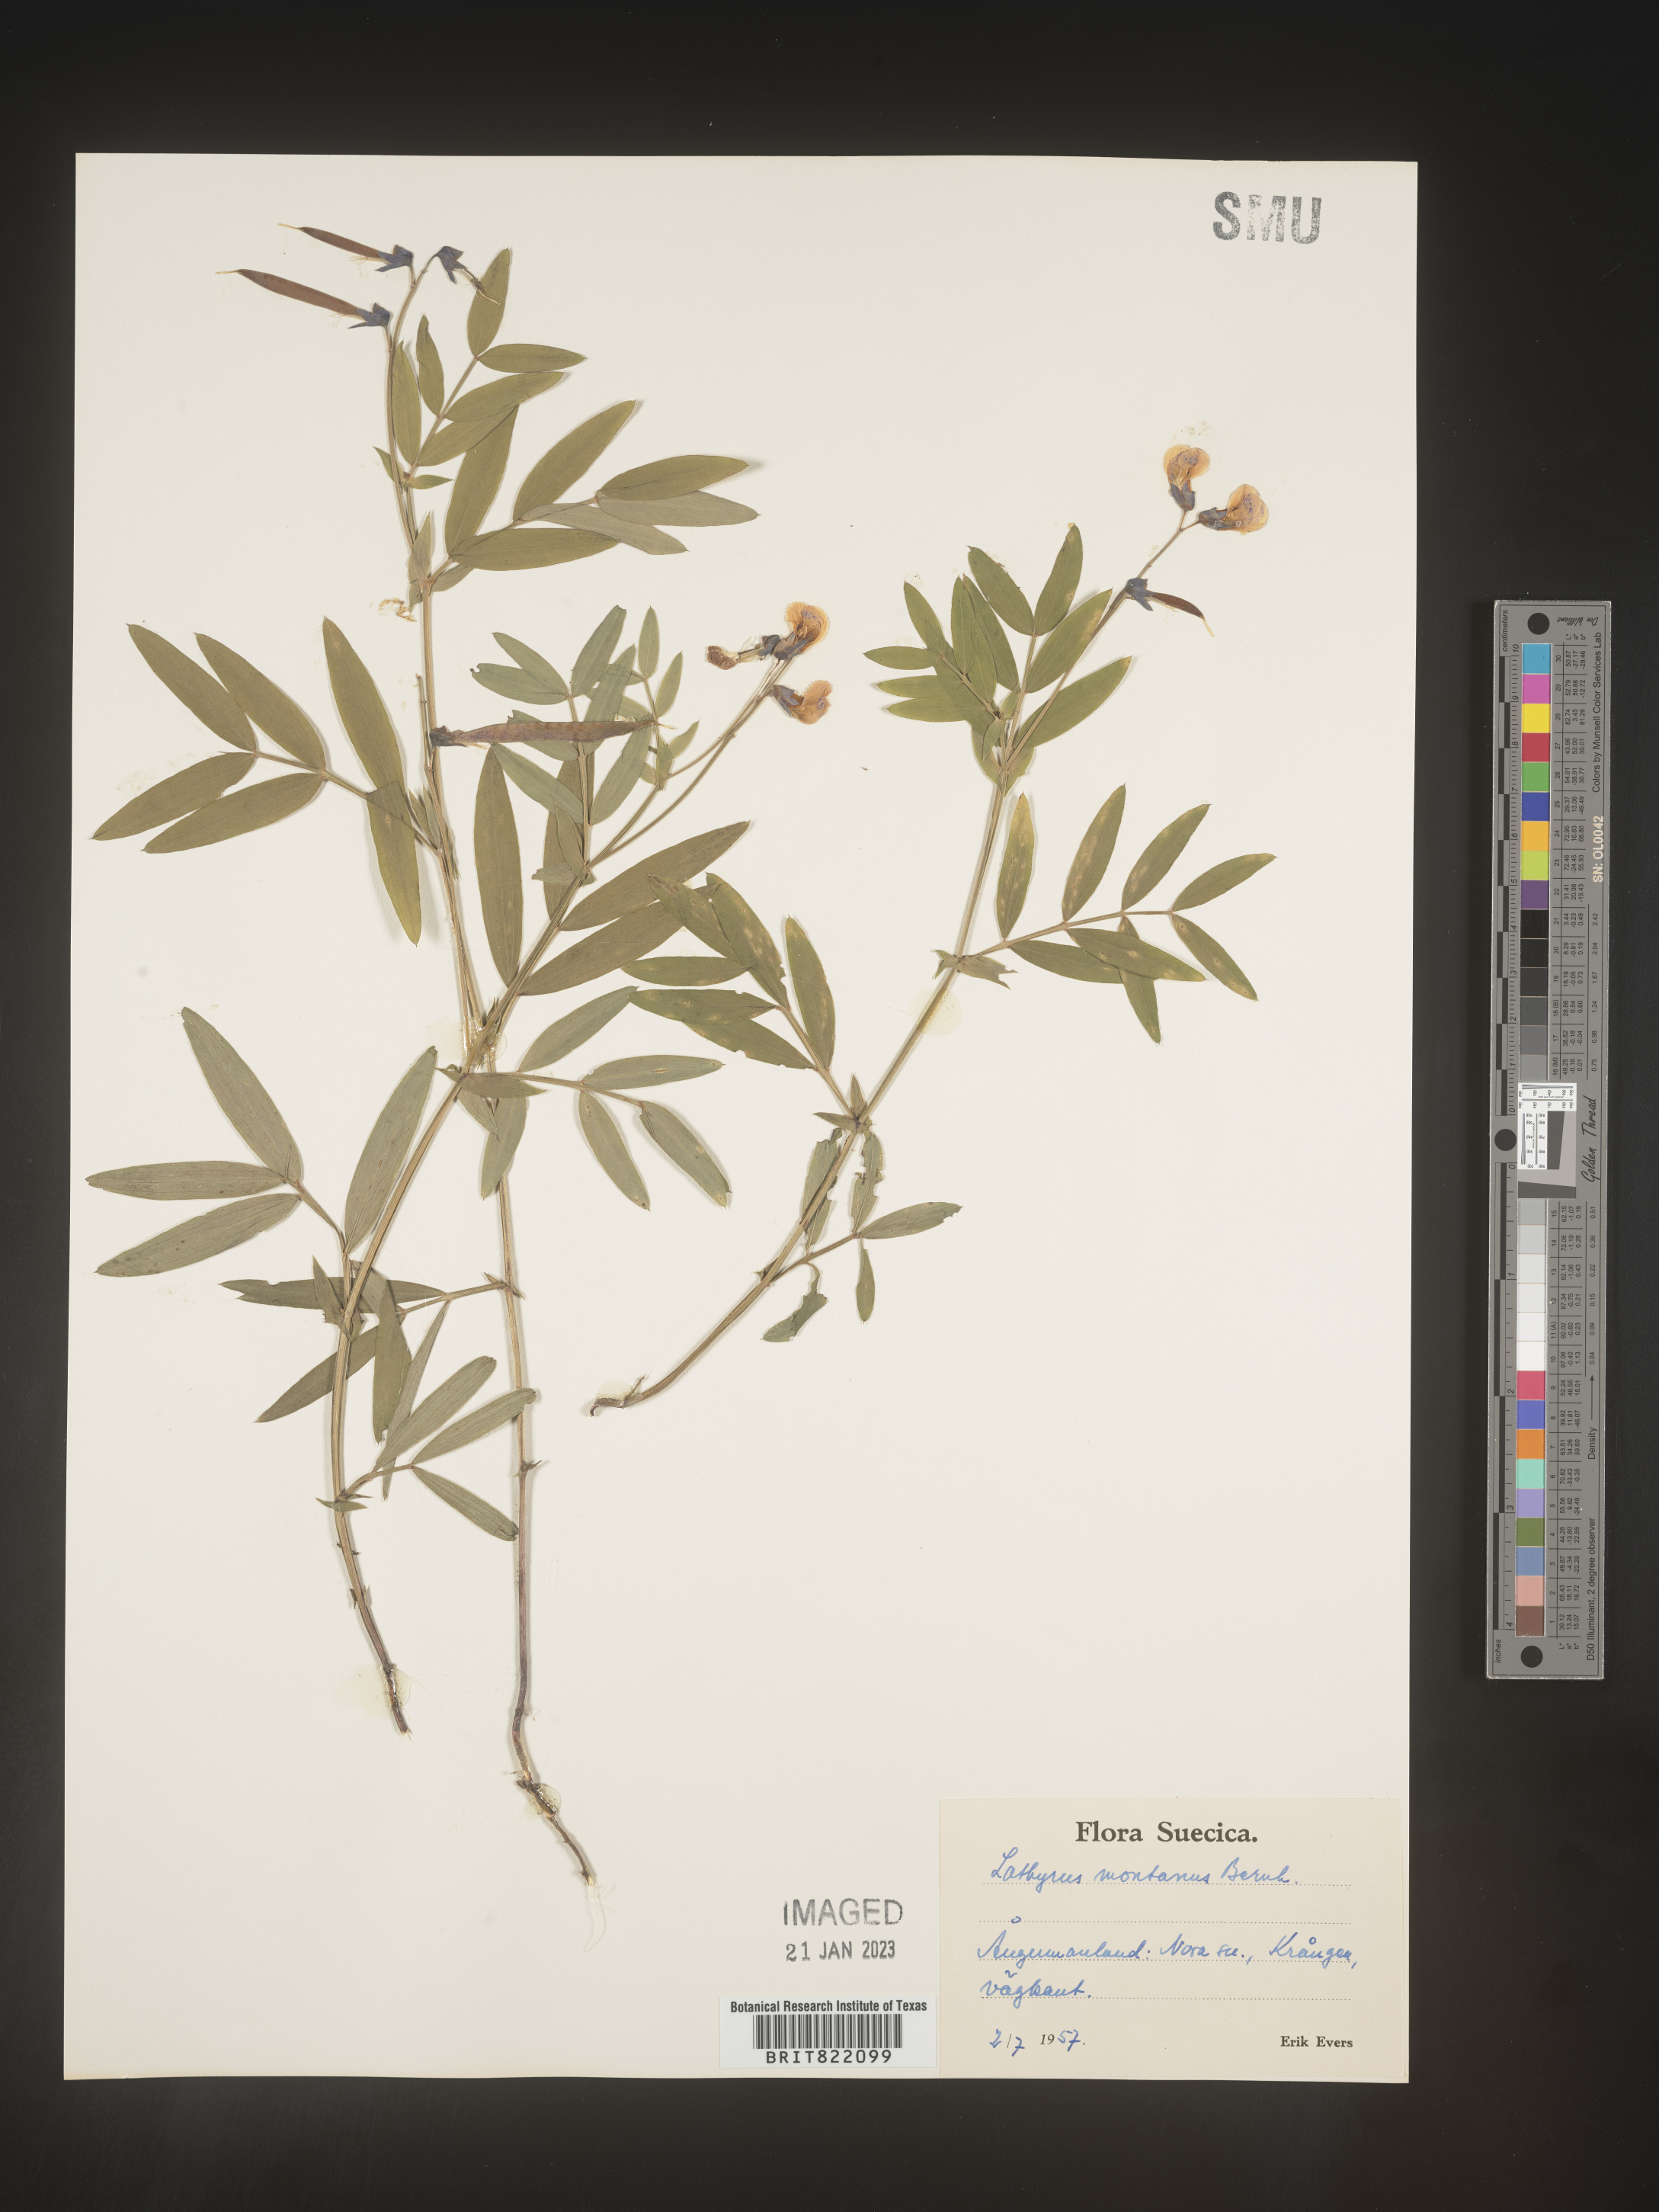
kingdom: Plantae
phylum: Tracheophyta
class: Magnoliopsida
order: Fabales
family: Fabaceae
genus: Lathyrus
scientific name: Lathyrus
